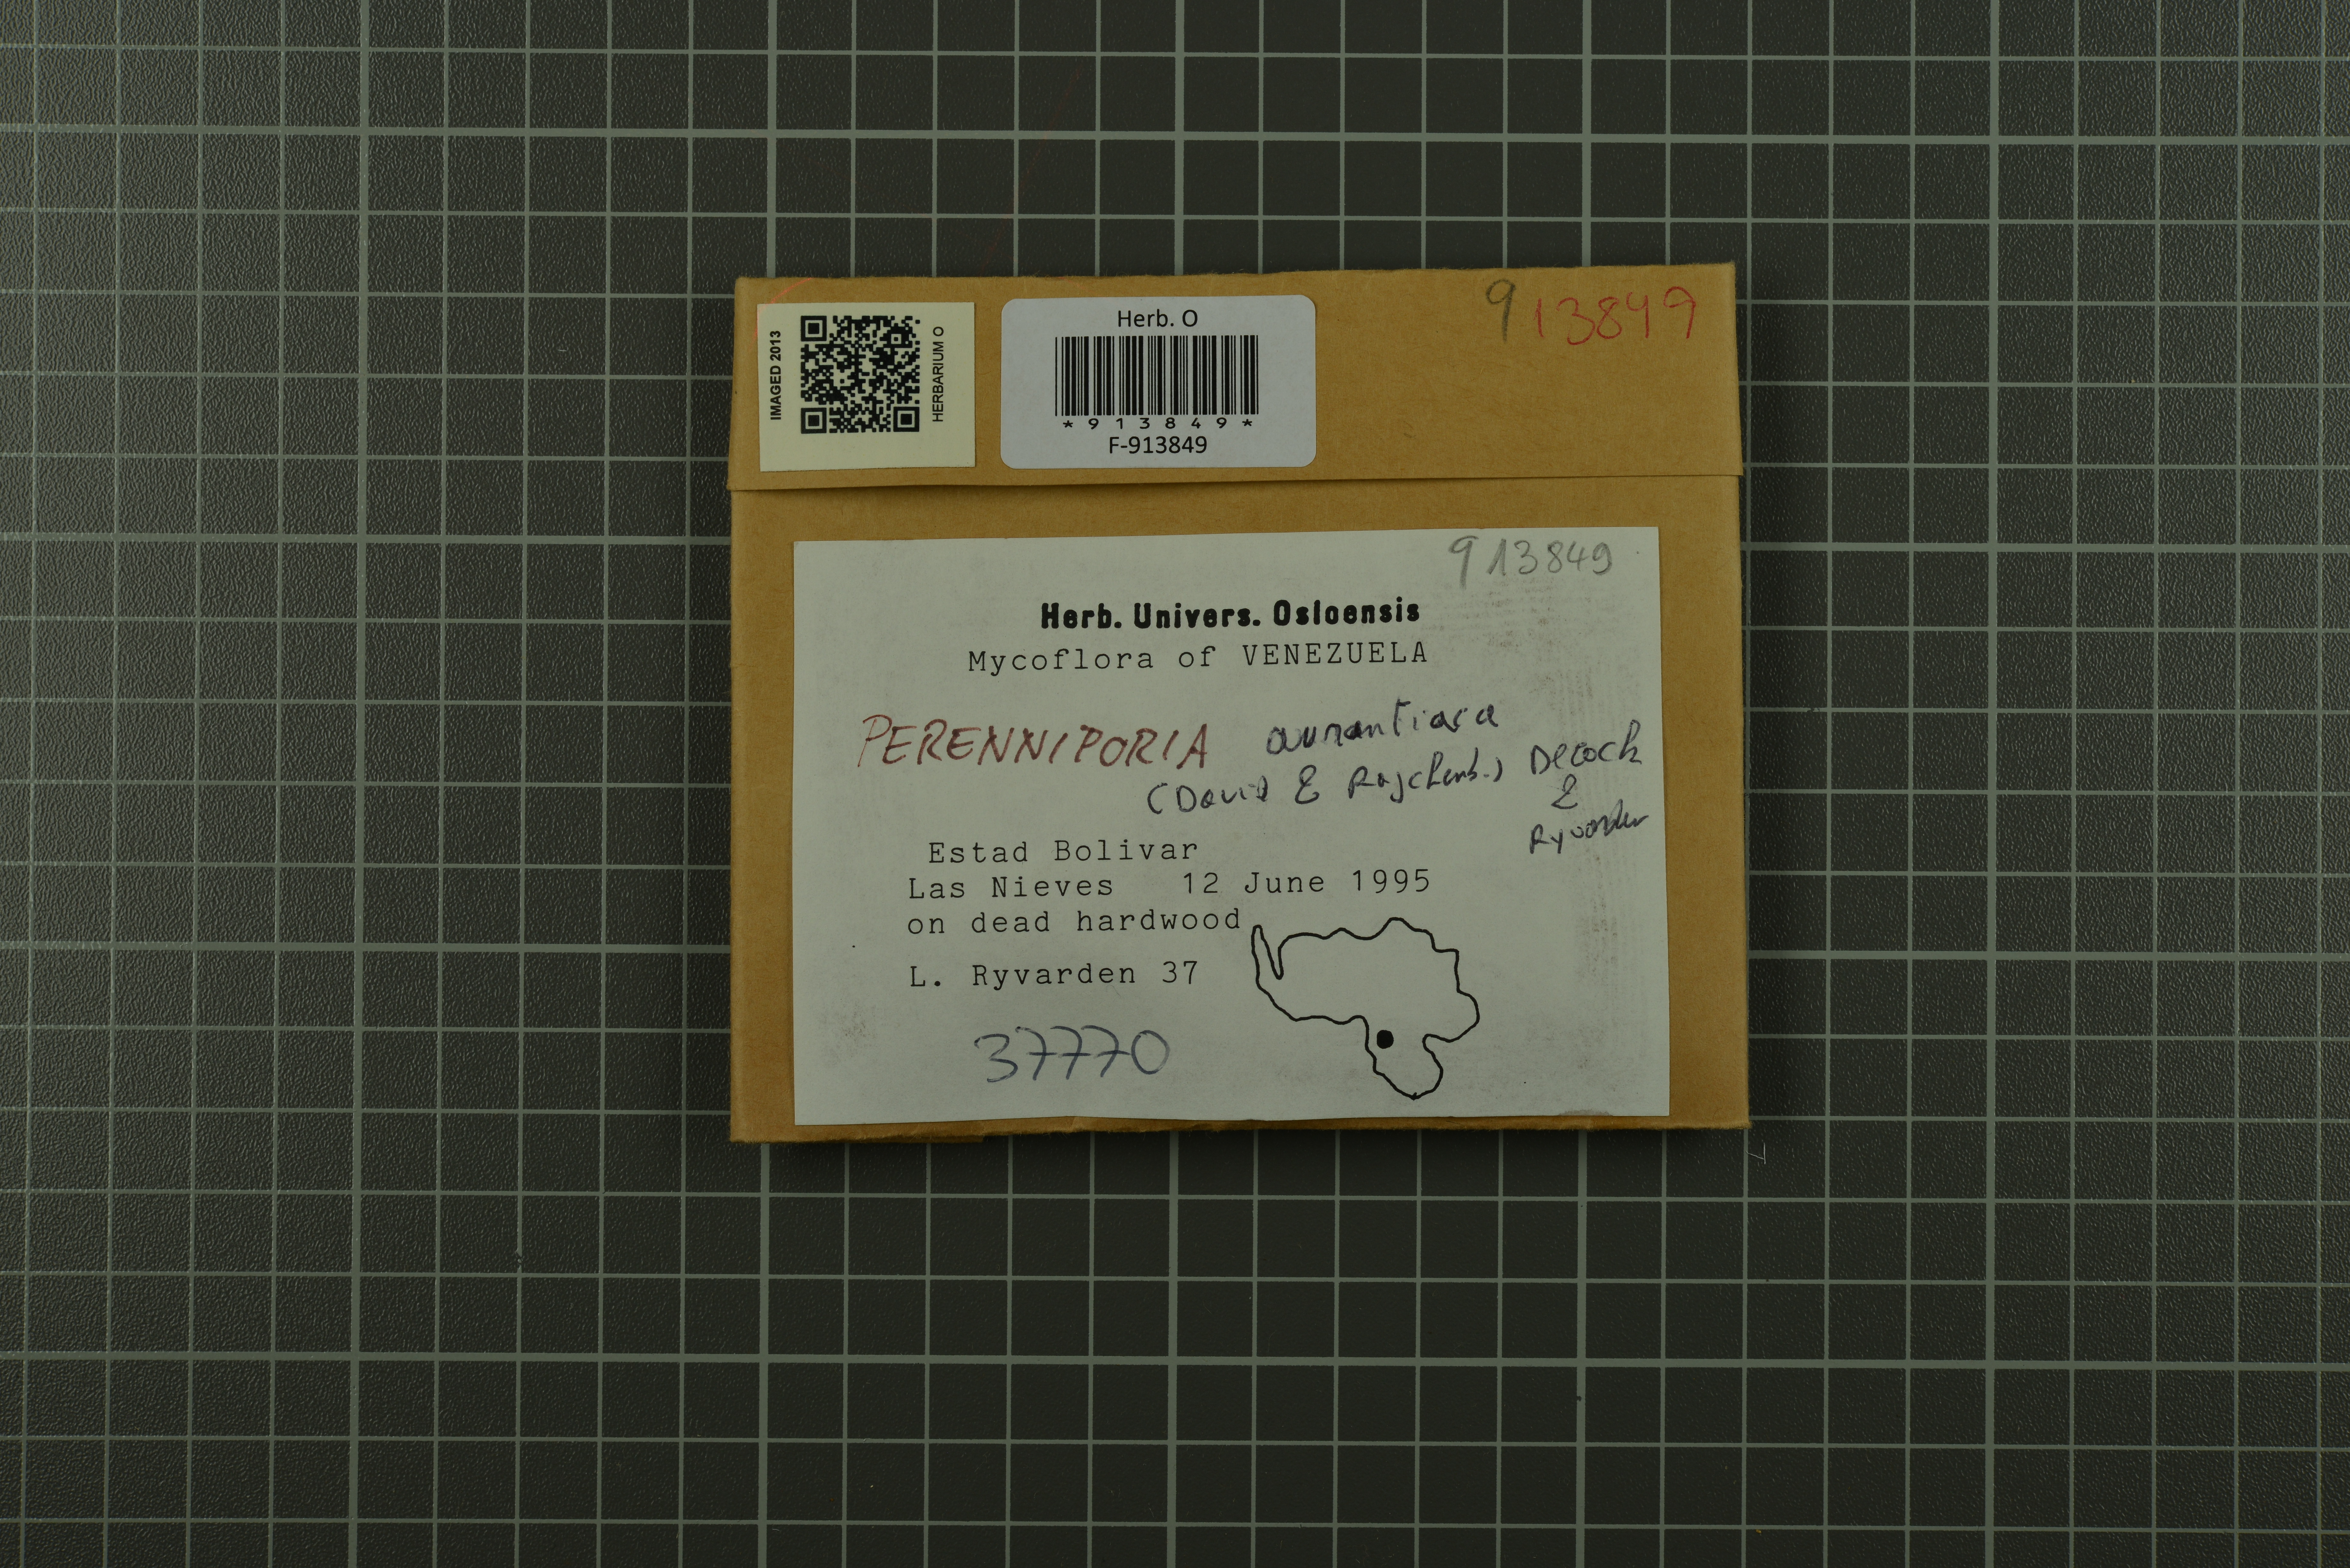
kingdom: Fungi
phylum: Basidiomycota
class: Agaricomycetes
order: Polyporales
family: Polyporaceae
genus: Perenniporia
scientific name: Perenniporia aurantiaca
